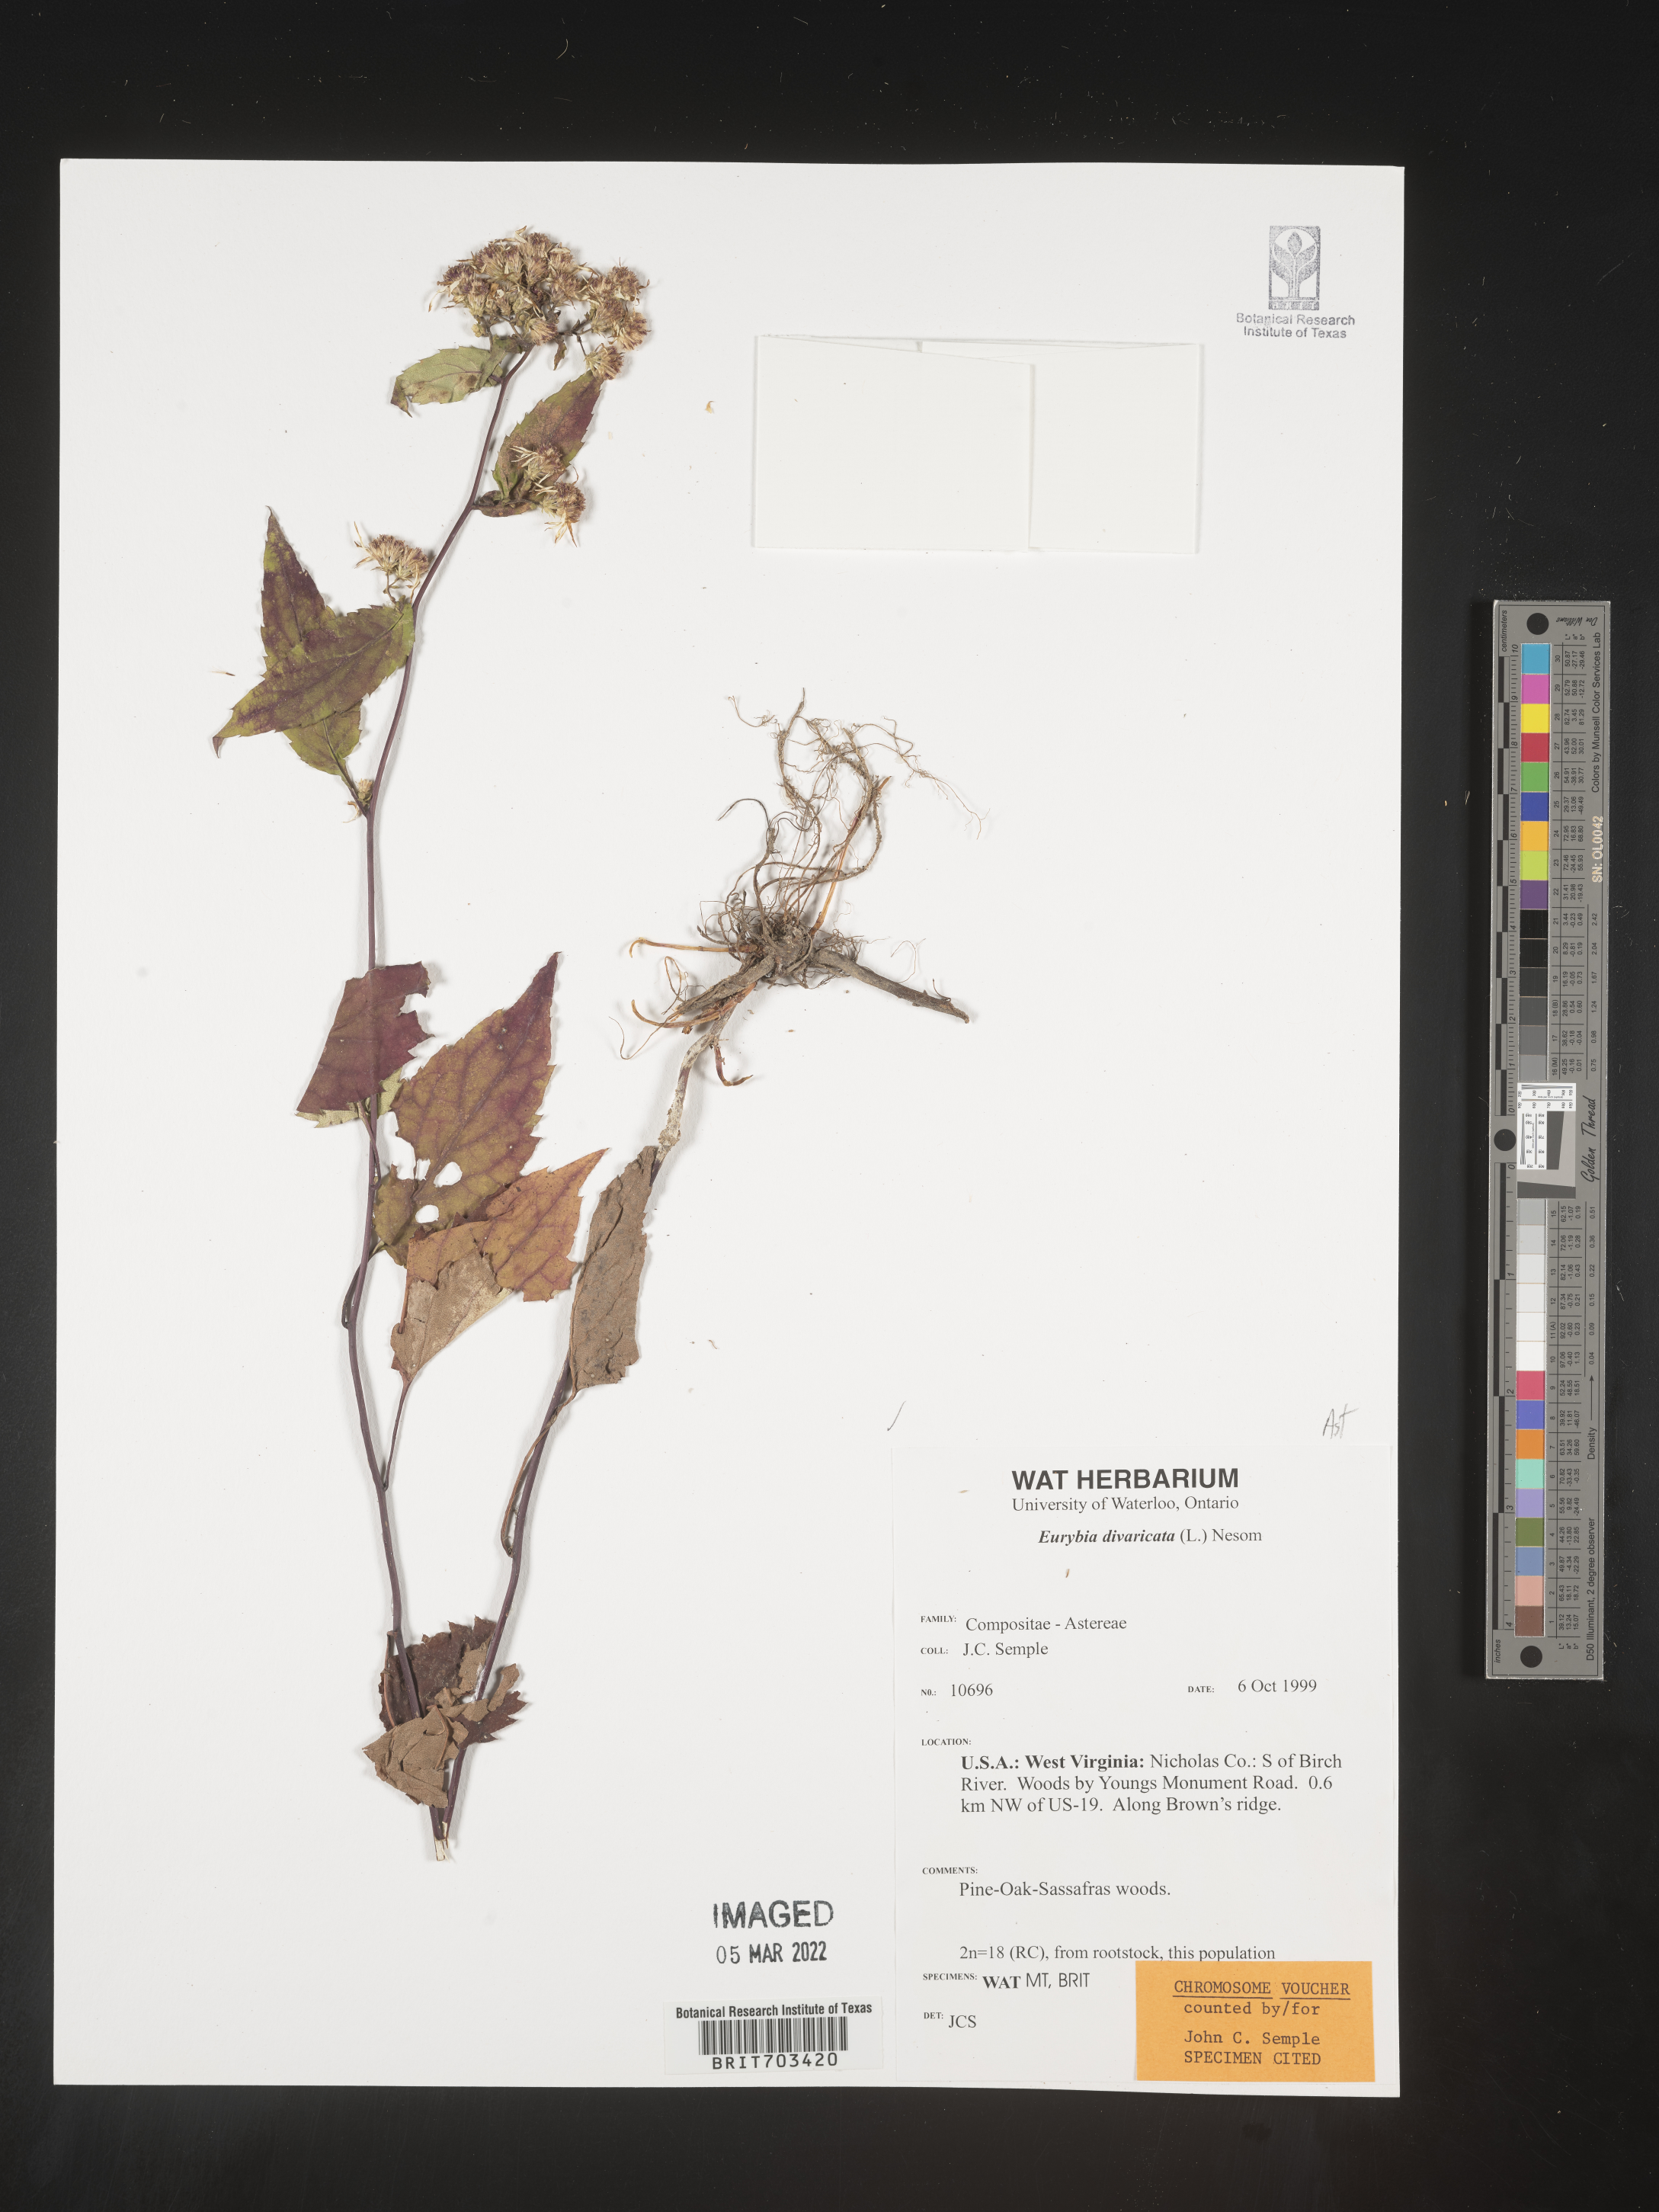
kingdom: Plantae
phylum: Tracheophyta
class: Magnoliopsida
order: Asterales
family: Asteraceae
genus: Eurybia
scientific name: Eurybia divaricata
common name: White wood aster
